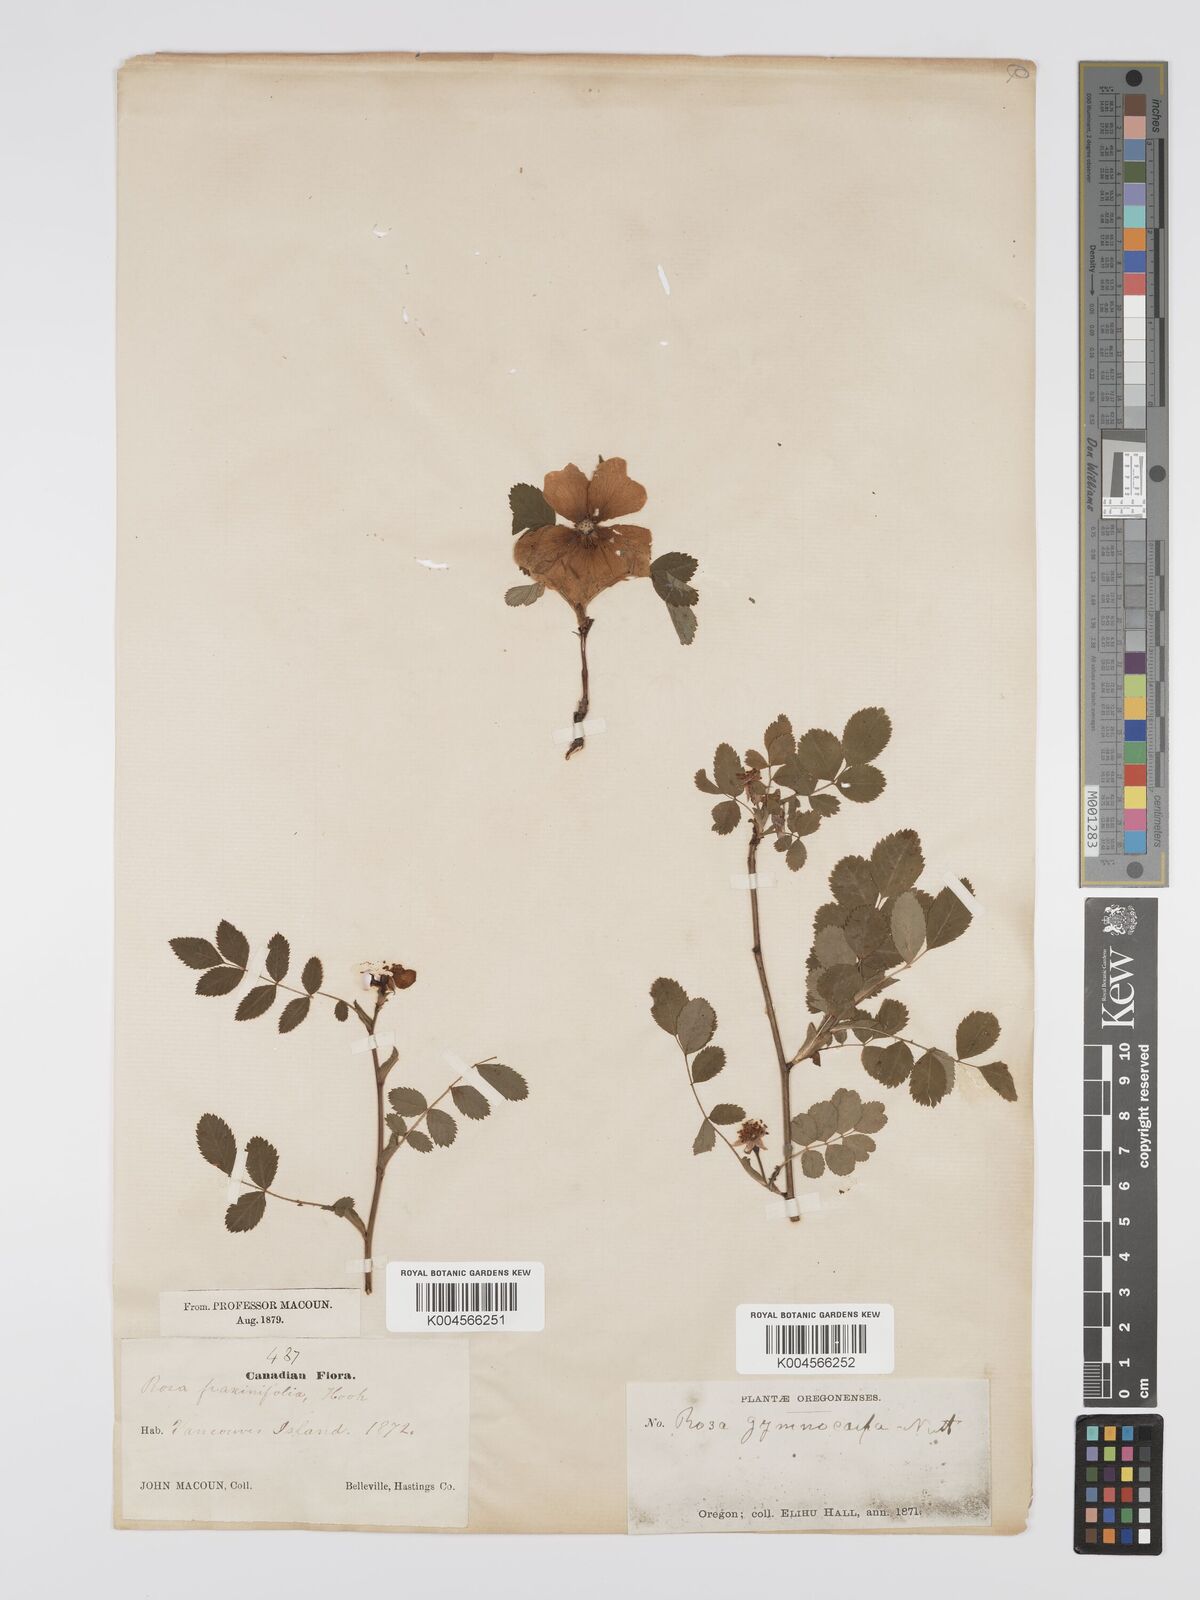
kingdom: Plantae
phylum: Tracheophyta
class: Magnoliopsida
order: Rosales
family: Rosaceae
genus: Rosa
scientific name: Rosa gymnocarpa
